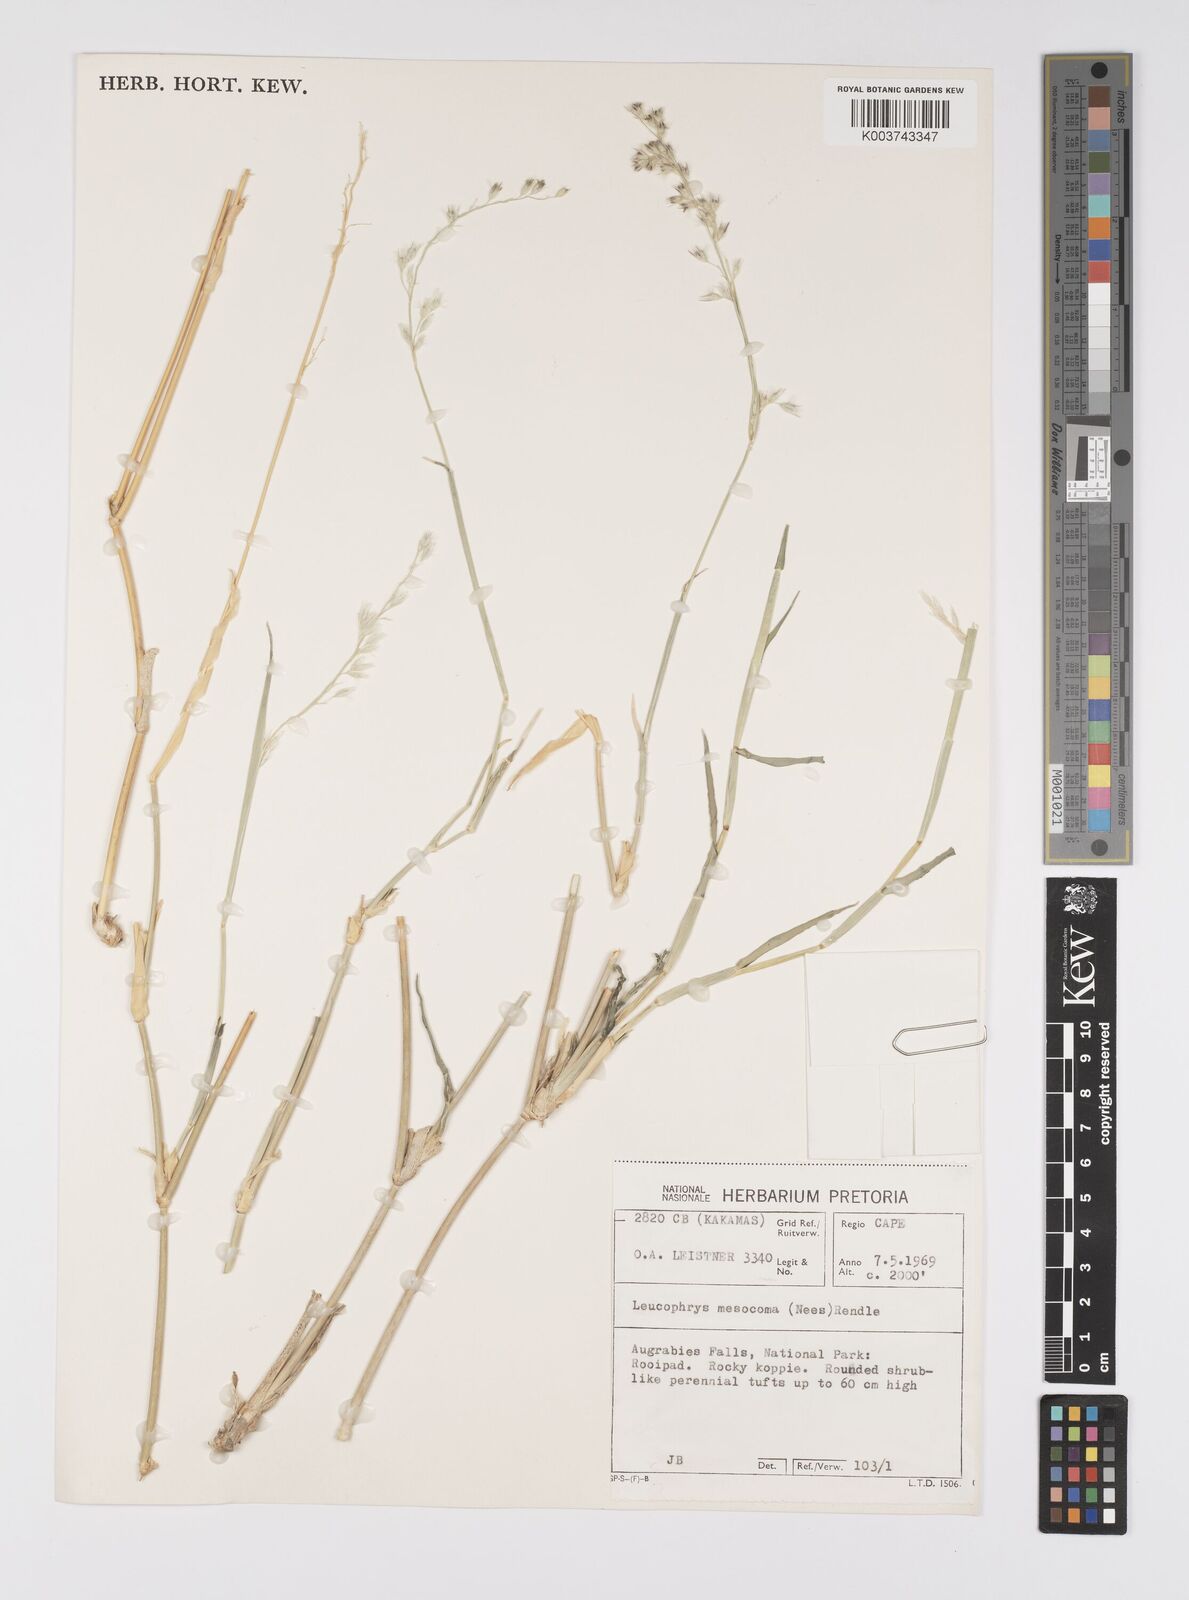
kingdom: Plantae
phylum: Tracheophyta
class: Liliopsida
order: Poales
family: Poaceae
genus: Urochloa
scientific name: Urochloa Brachiaria mesocoma
